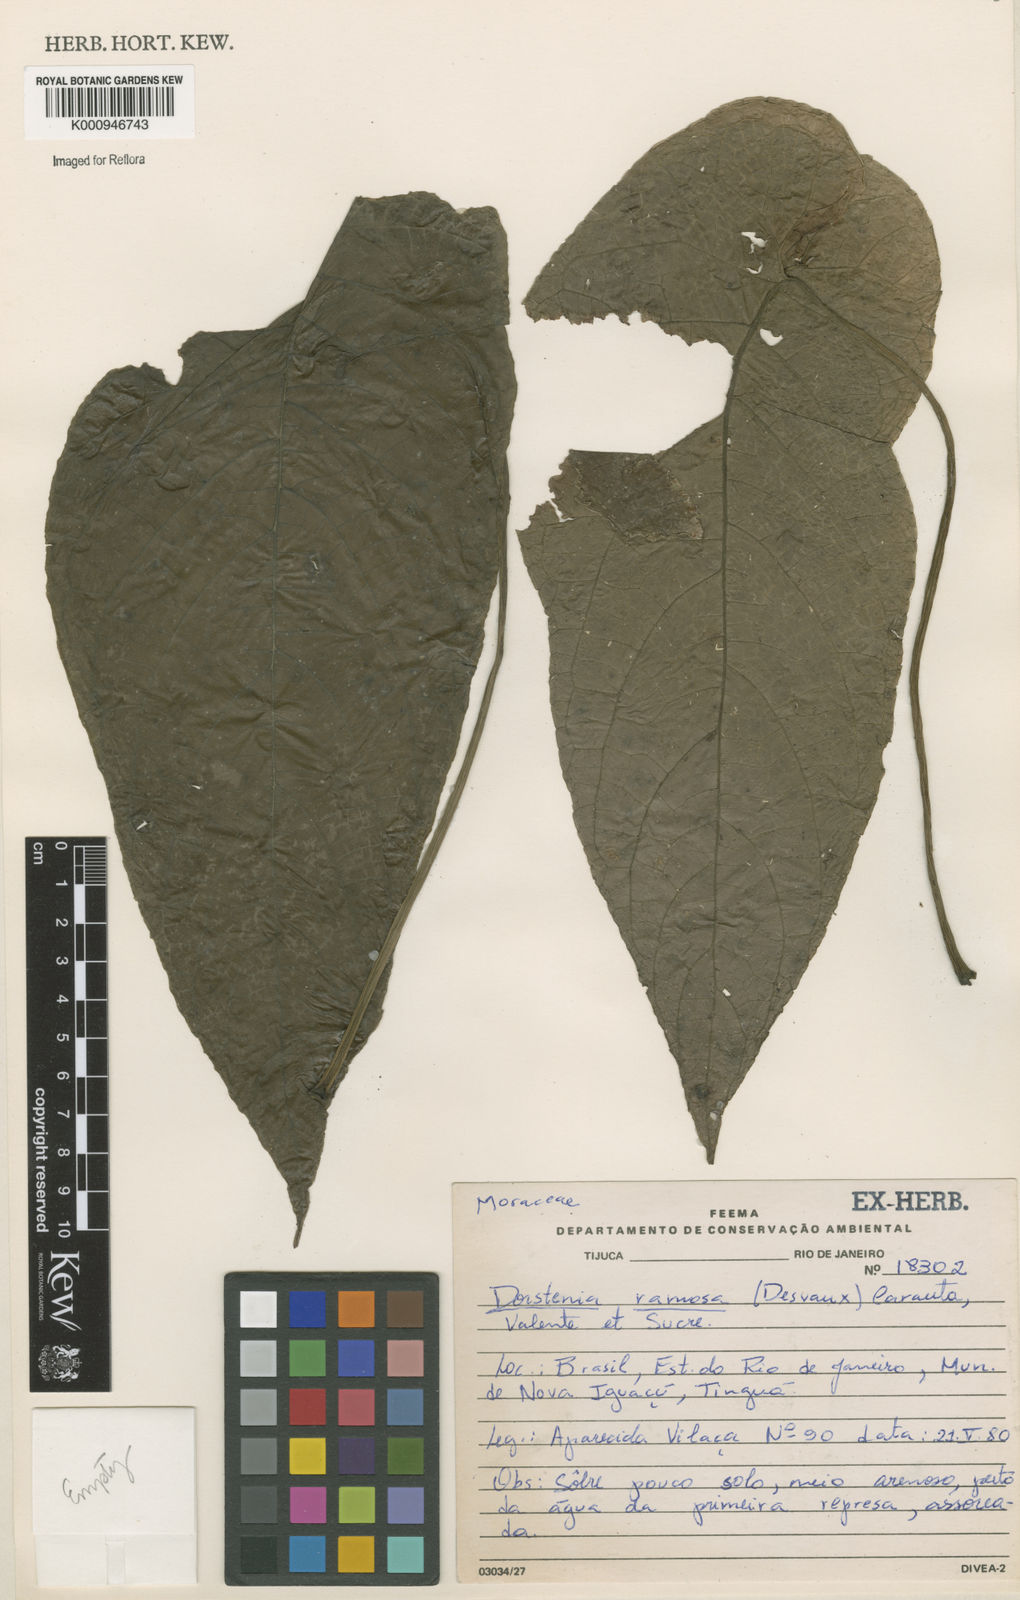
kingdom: Plantae
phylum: Tracheophyta
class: Magnoliopsida
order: Rosales
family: Moraceae
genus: Dorstenia
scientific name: Dorstenia ramosa
